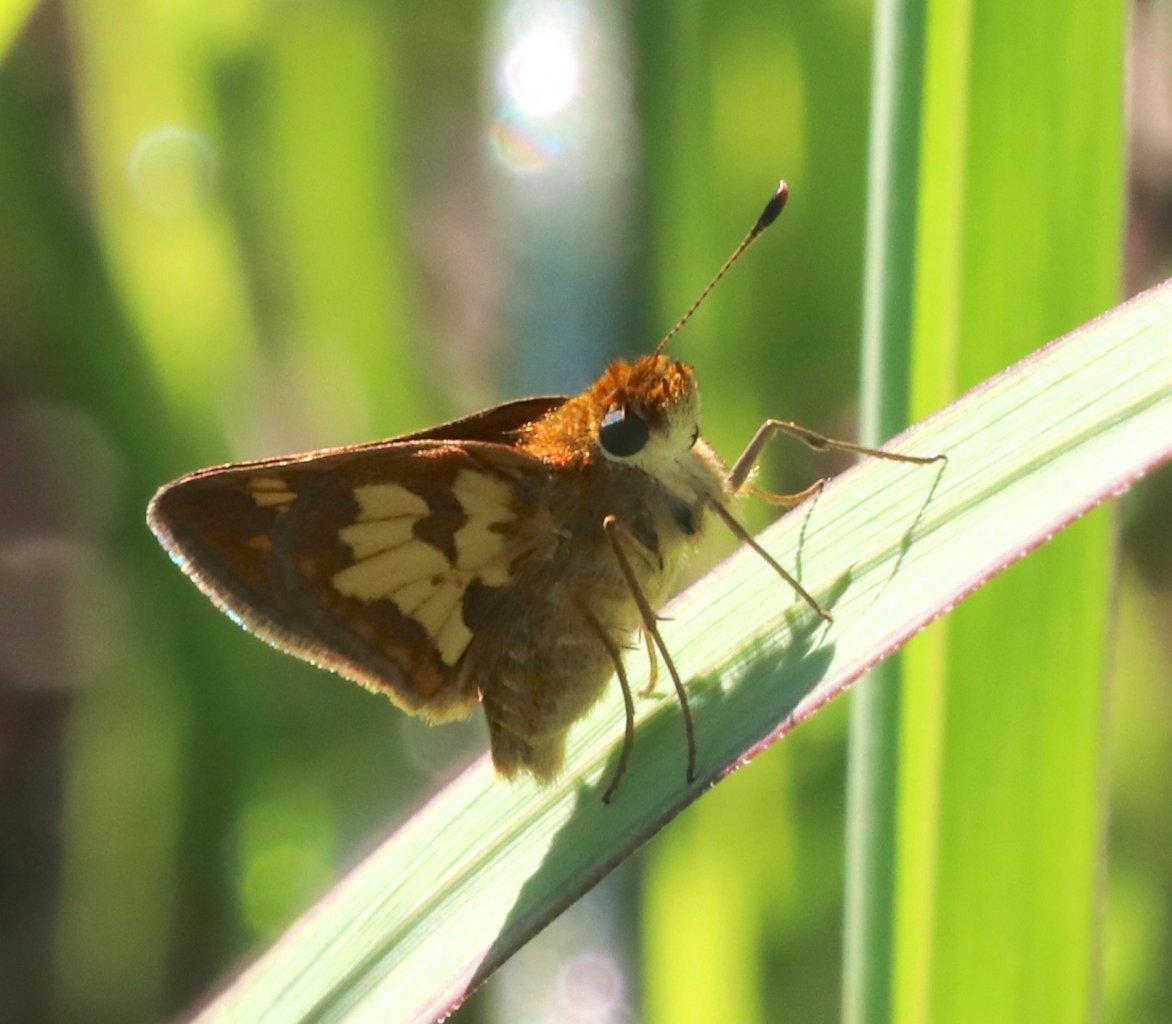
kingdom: Animalia
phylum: Arthropoda
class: Insecta
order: Lepidoptera
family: Hesperiidae
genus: Polites
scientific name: Polites coras
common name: Peck's Skipper
